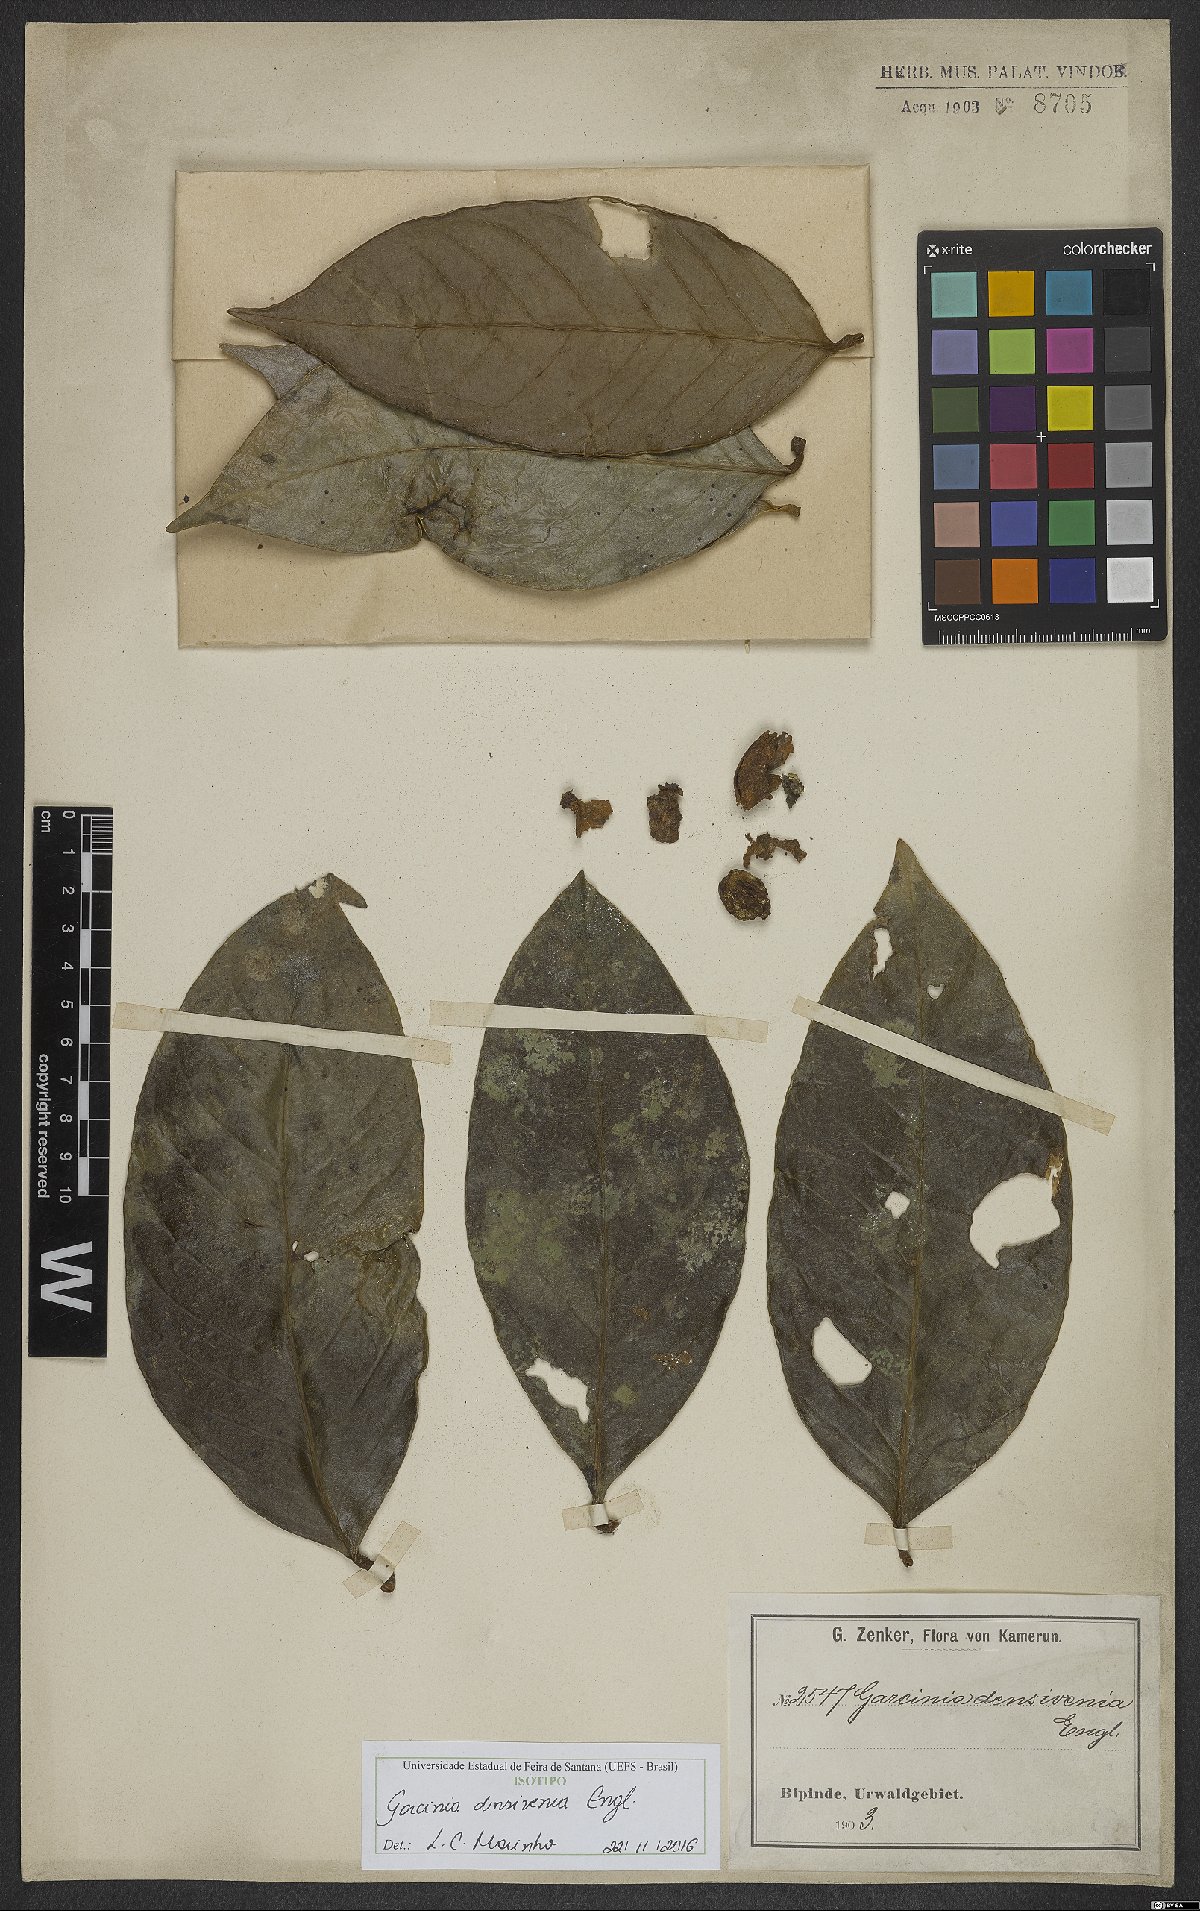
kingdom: Plantae
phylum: Tracheophyta
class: Magnoliopsida
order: Malpighiales
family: Clusiaceae
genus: Garcinia
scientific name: Garcinia densivenia
